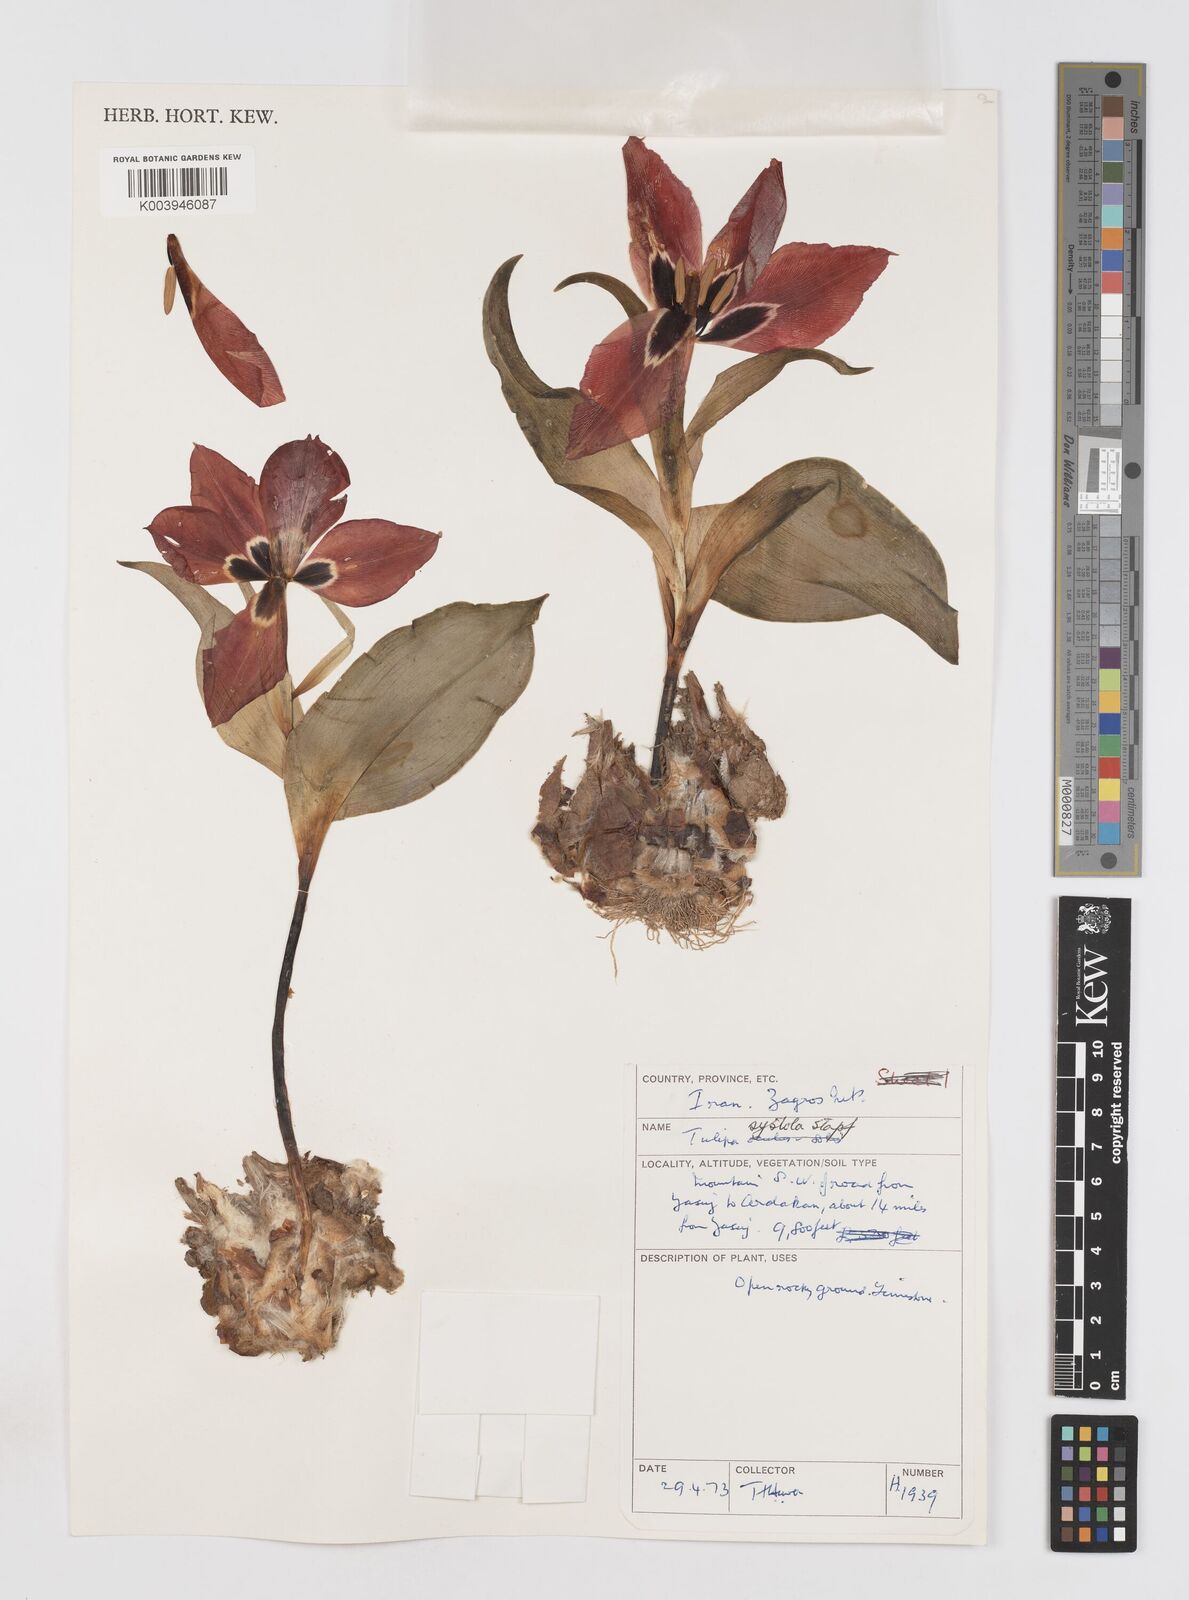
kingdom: Plantae
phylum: Tracheophyta
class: Liliopsida
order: Liliales
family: Liliaceae
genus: Tulipa
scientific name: Tulipa systola
